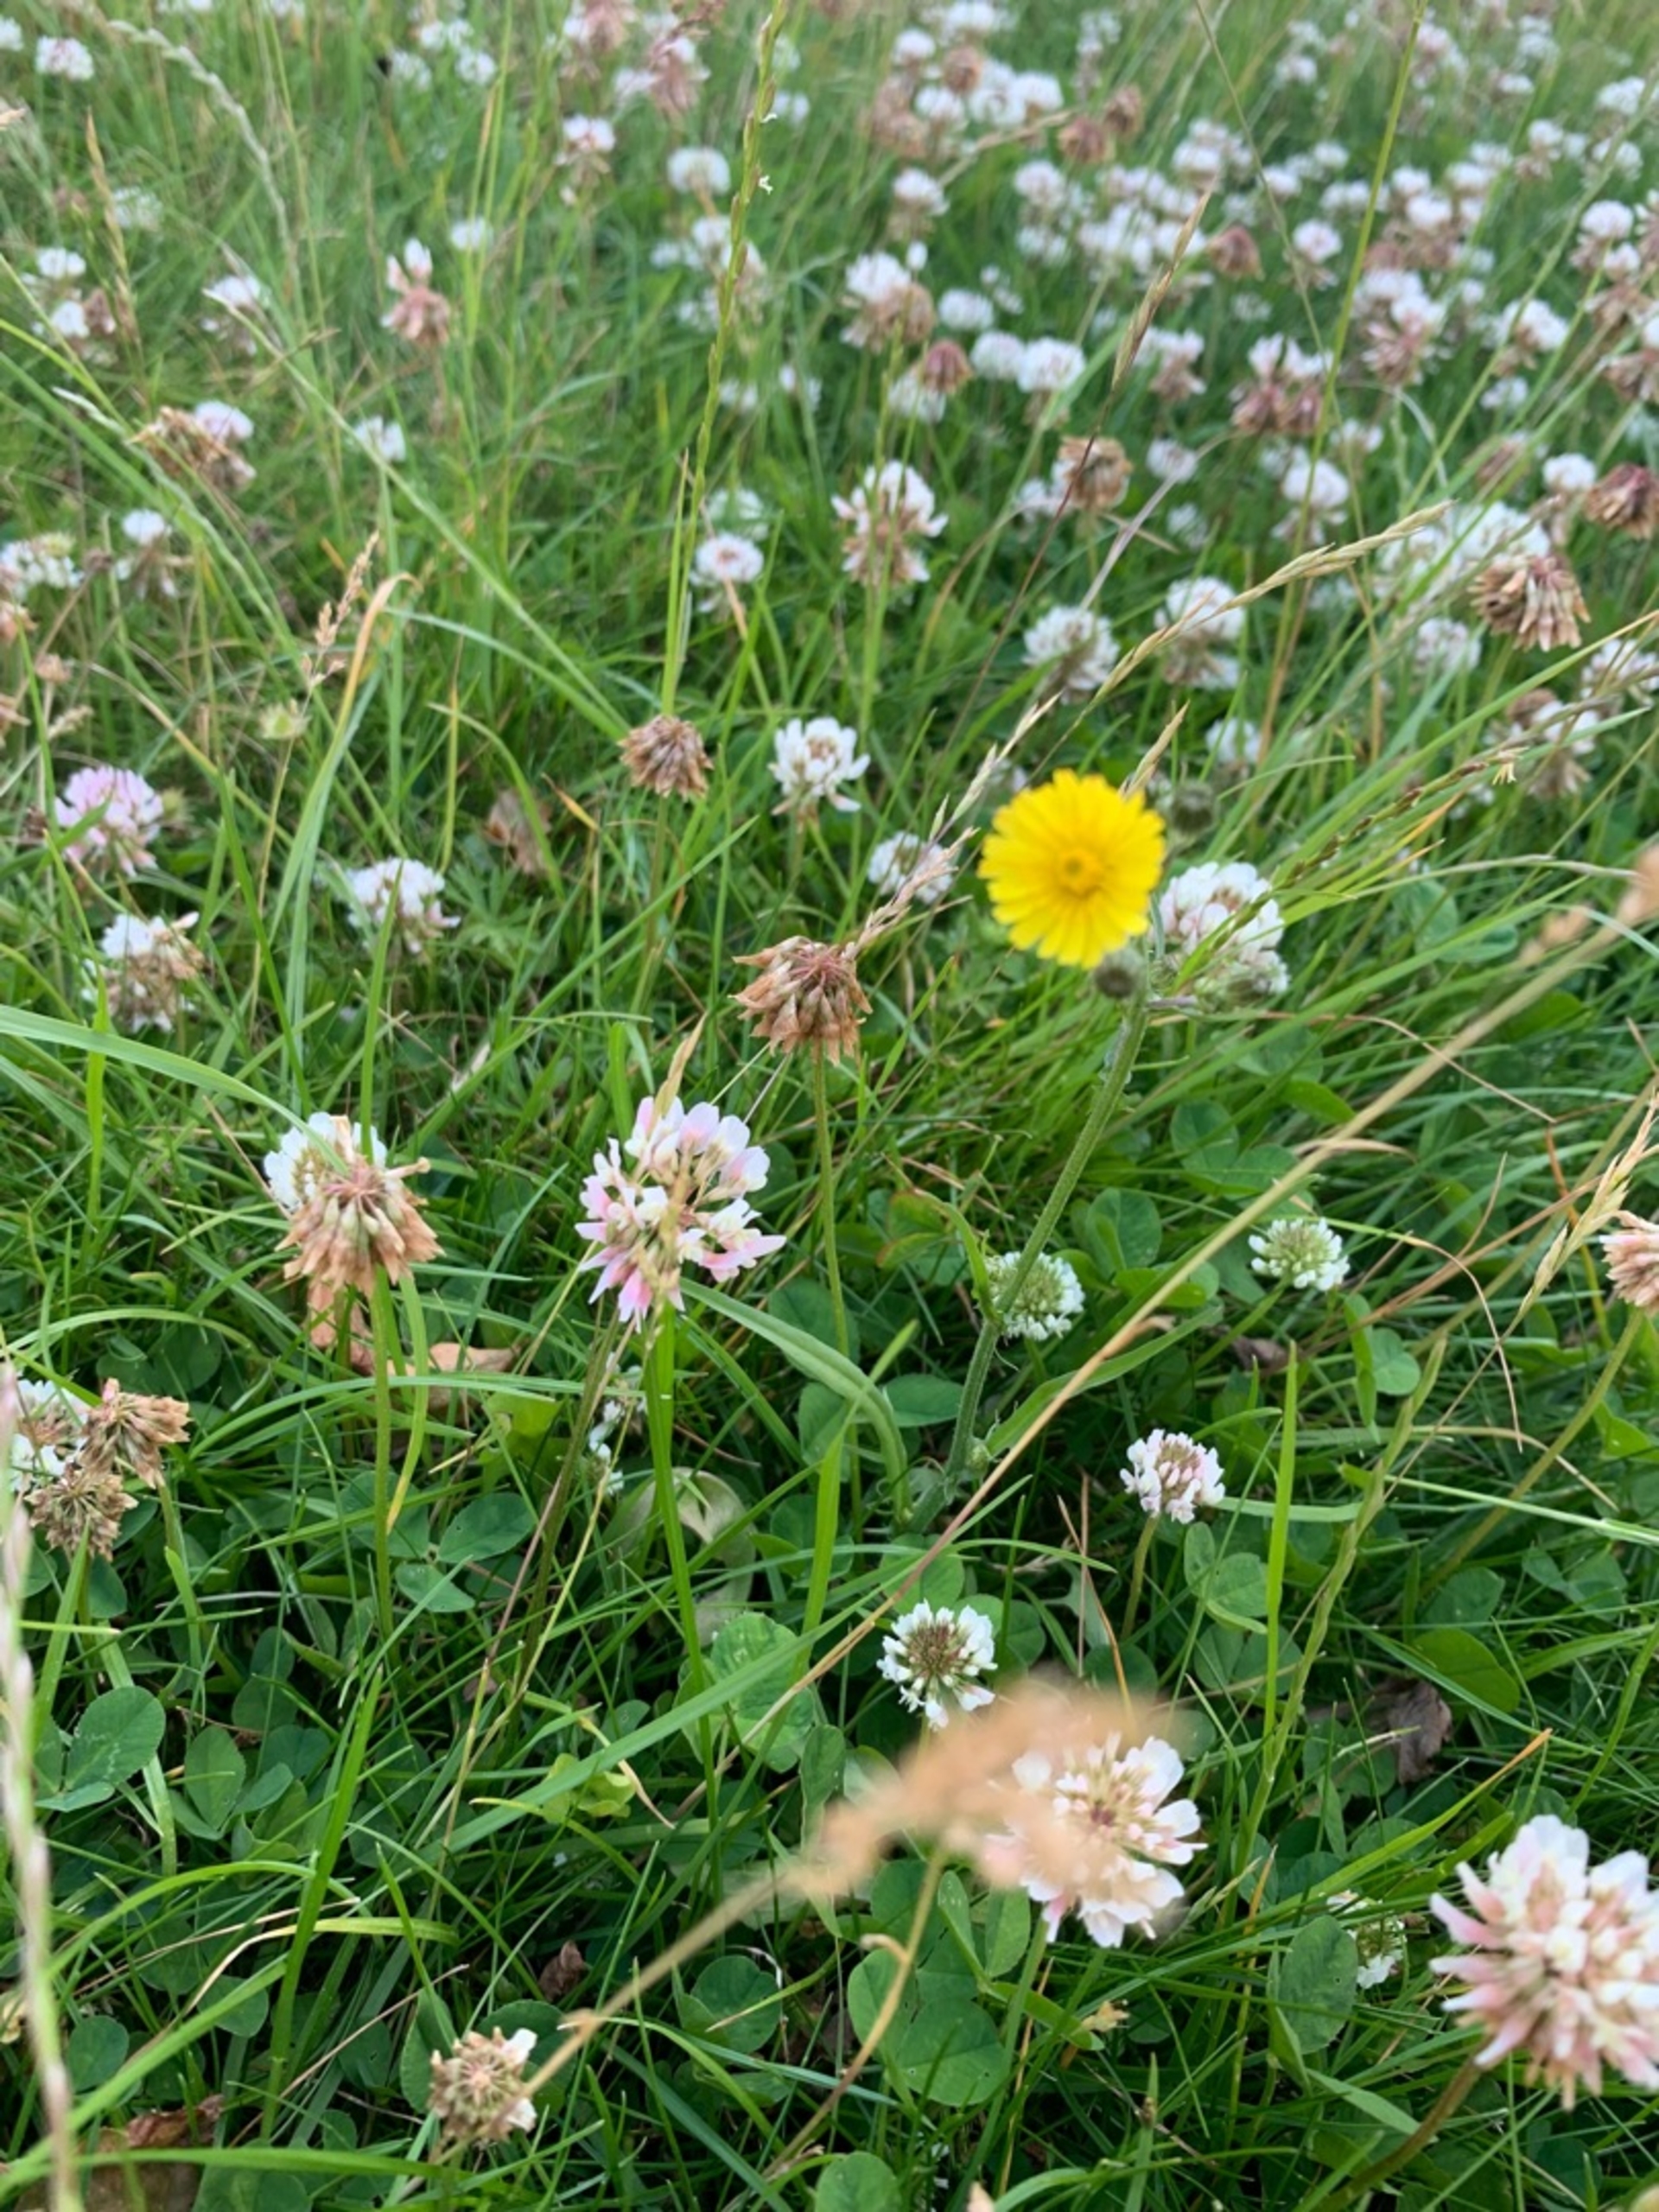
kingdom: Plantae
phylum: Tracheophyta
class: Magnoliopsida
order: Fabales
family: Fabaceae
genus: Trifolium
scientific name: Trifolium repens
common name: Hvid-kløver
